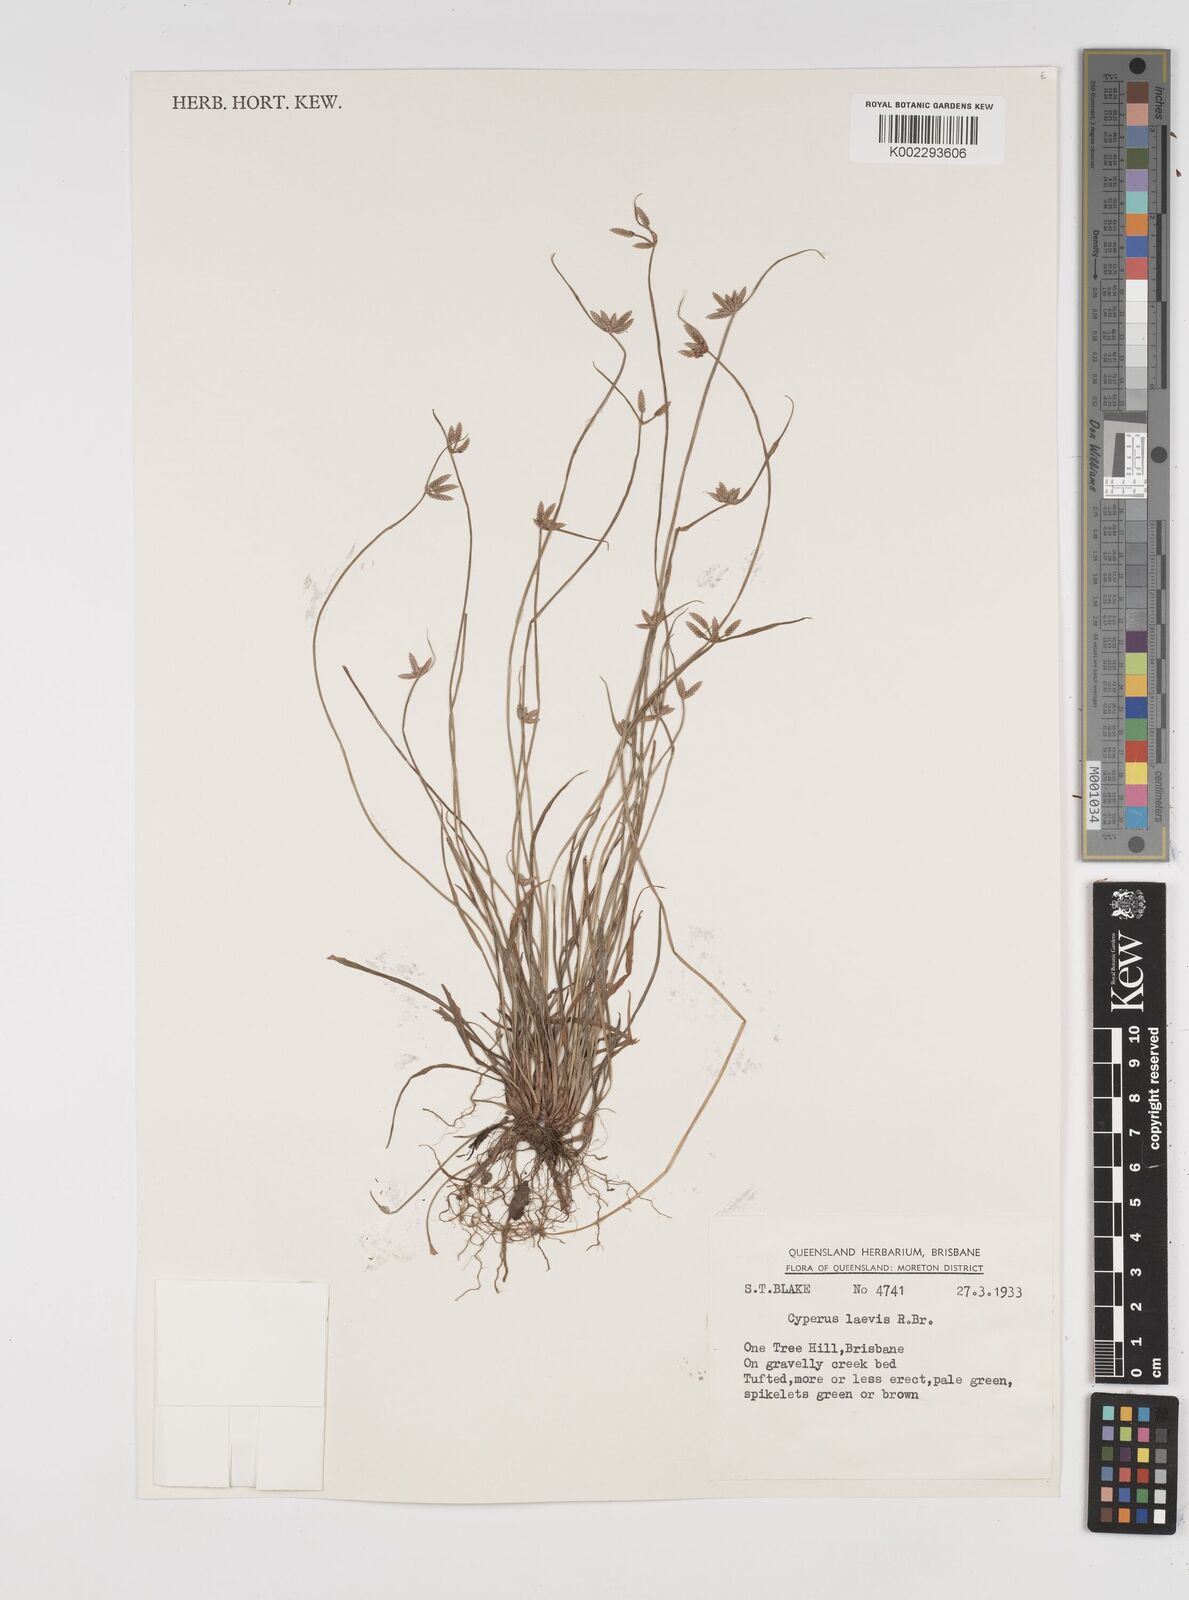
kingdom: Plantae
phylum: Tracheophyta
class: Liliopsida
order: Poales
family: Cyperaceae
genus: Cyperus
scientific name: Cyperus laevis
